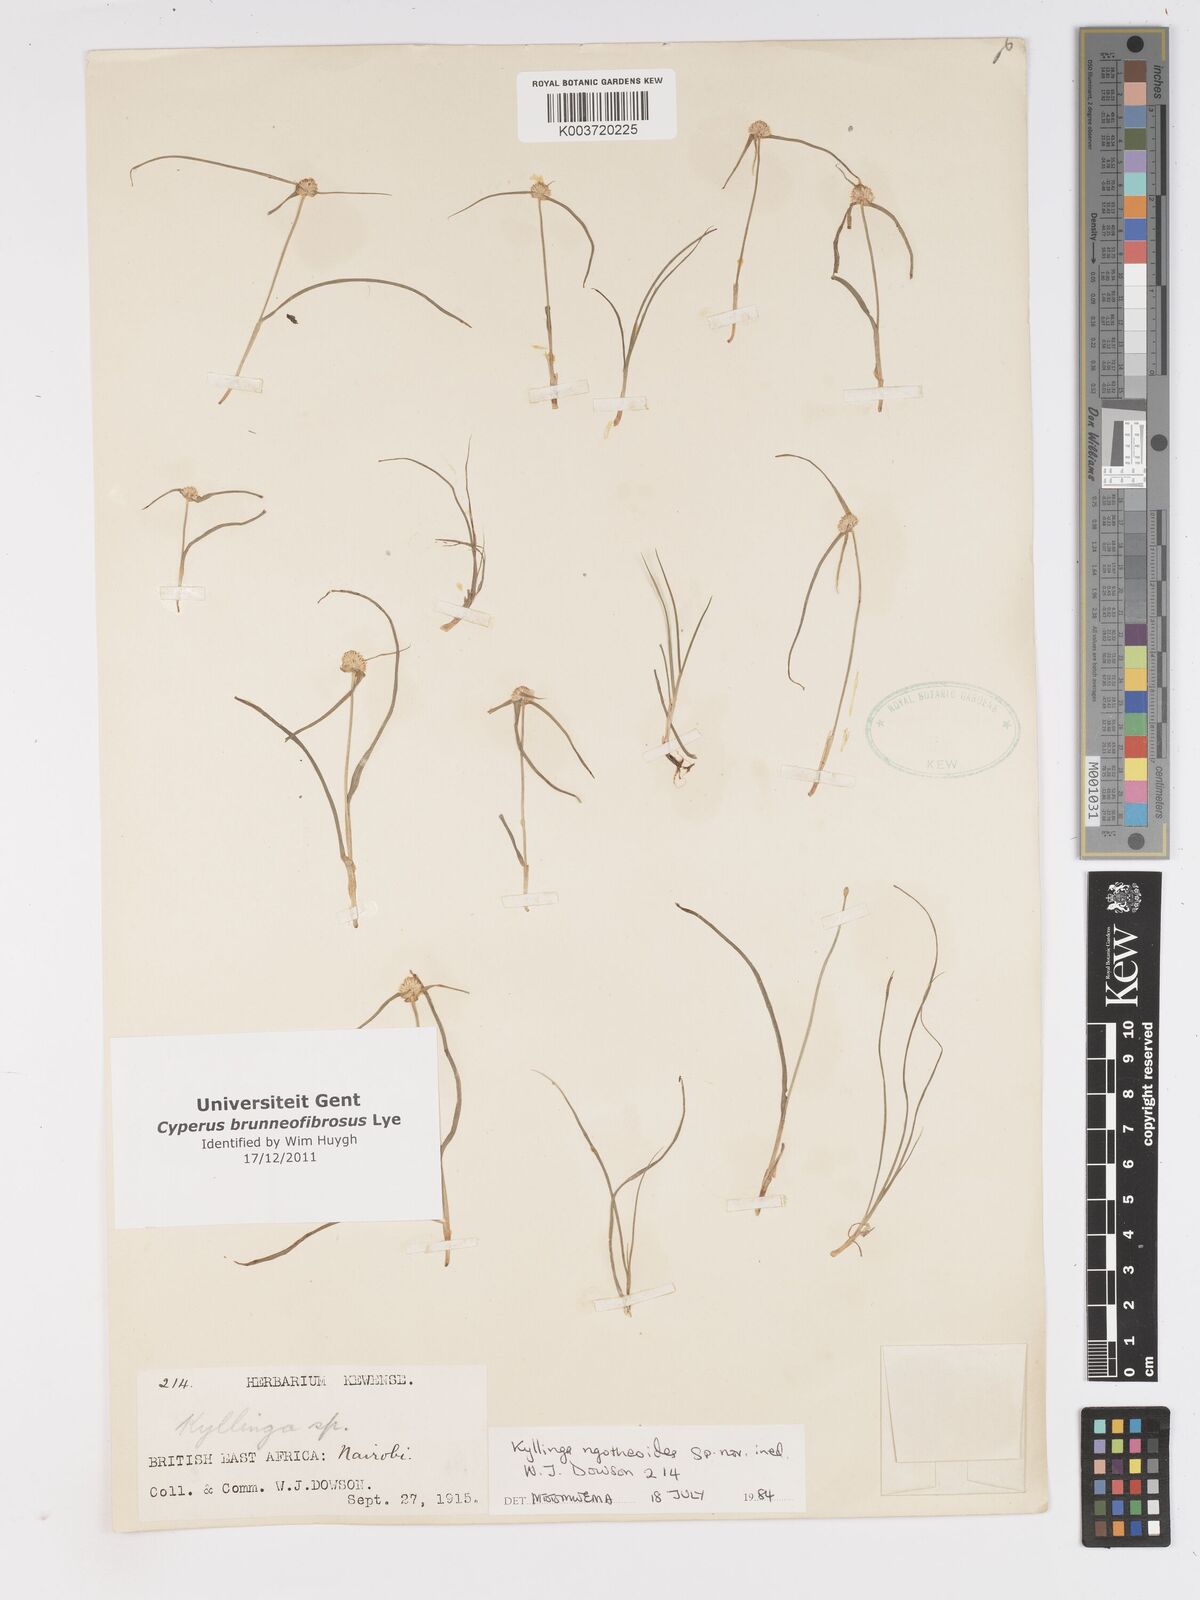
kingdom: Plantae
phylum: Tracheophyta
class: Liliopsida
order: Poales
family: Cyperaceae
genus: Cyperus
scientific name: Cyperus brunneofibrosus
